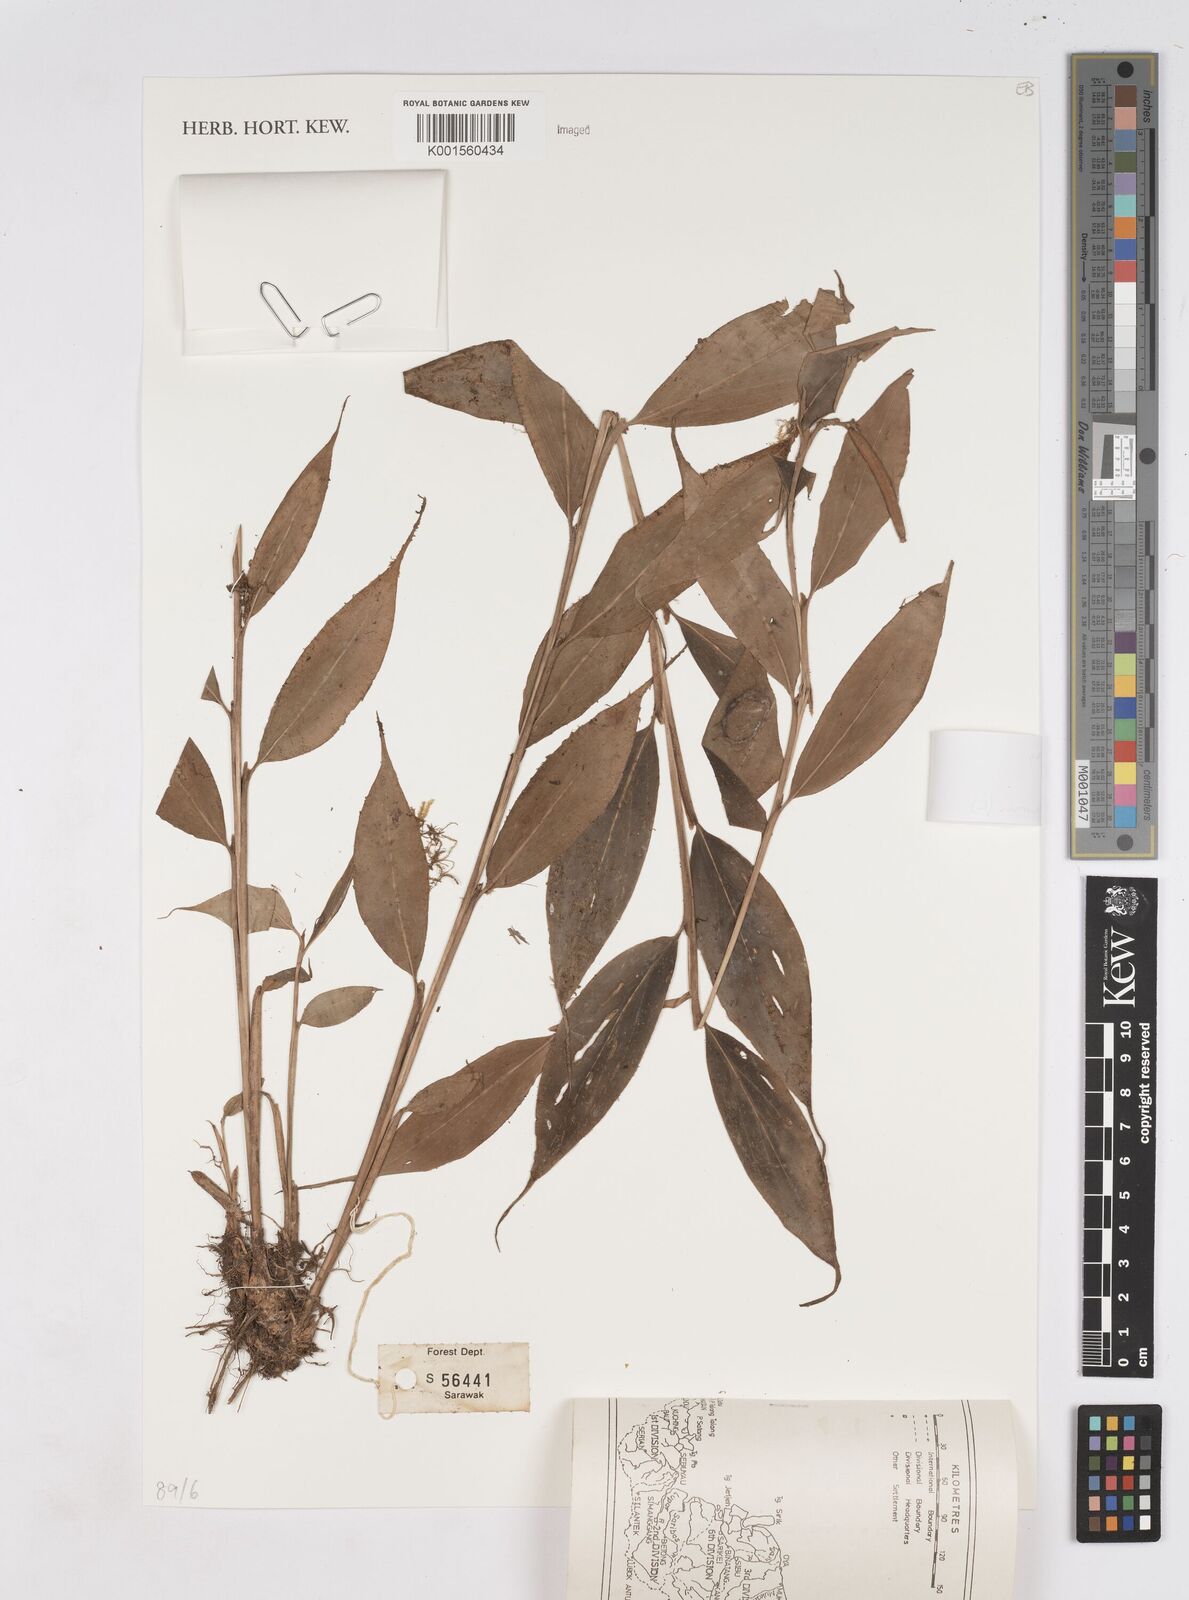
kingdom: Plantae
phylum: Tracheophyta
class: Liliopsida
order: Zingiberales
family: Zingiberaceae
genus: Burbidgea
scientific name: Burbidgea
